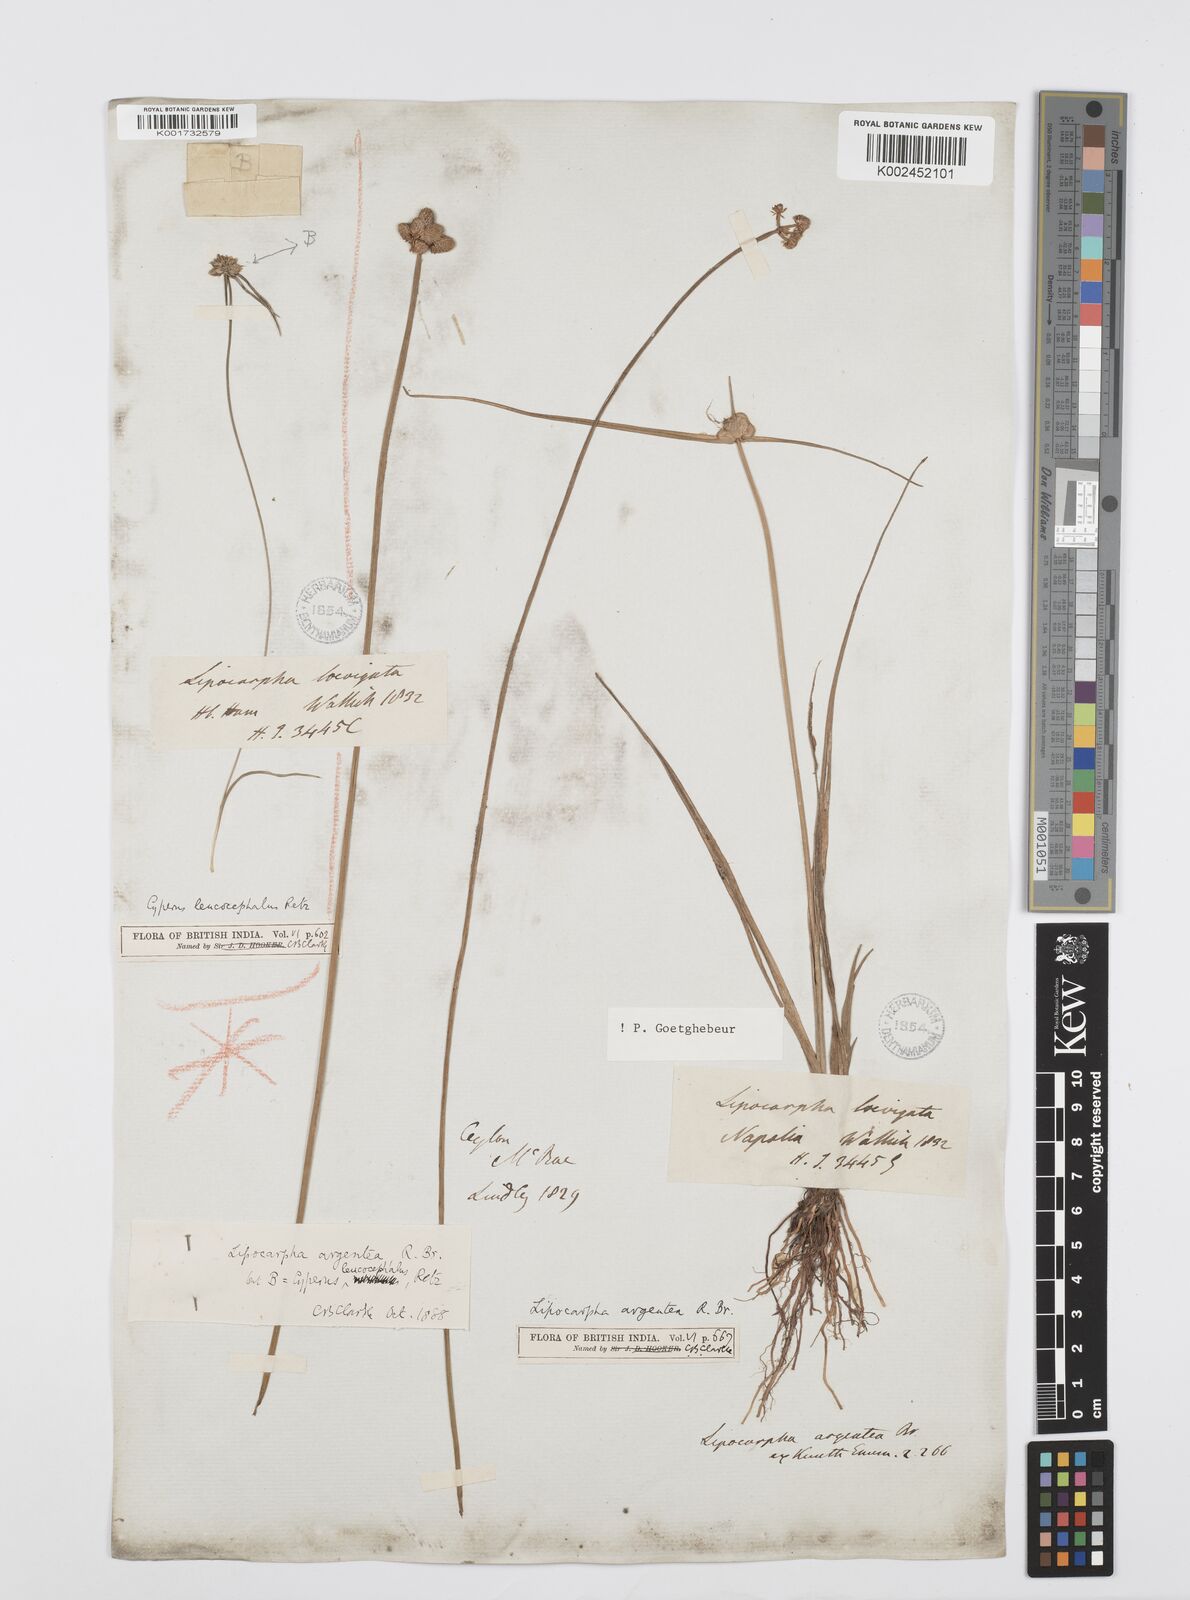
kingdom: Plantae
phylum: Tracheophyta
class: Liliopsida
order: Poales
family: Cyperaceae
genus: Cyperus
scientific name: Cyperus
